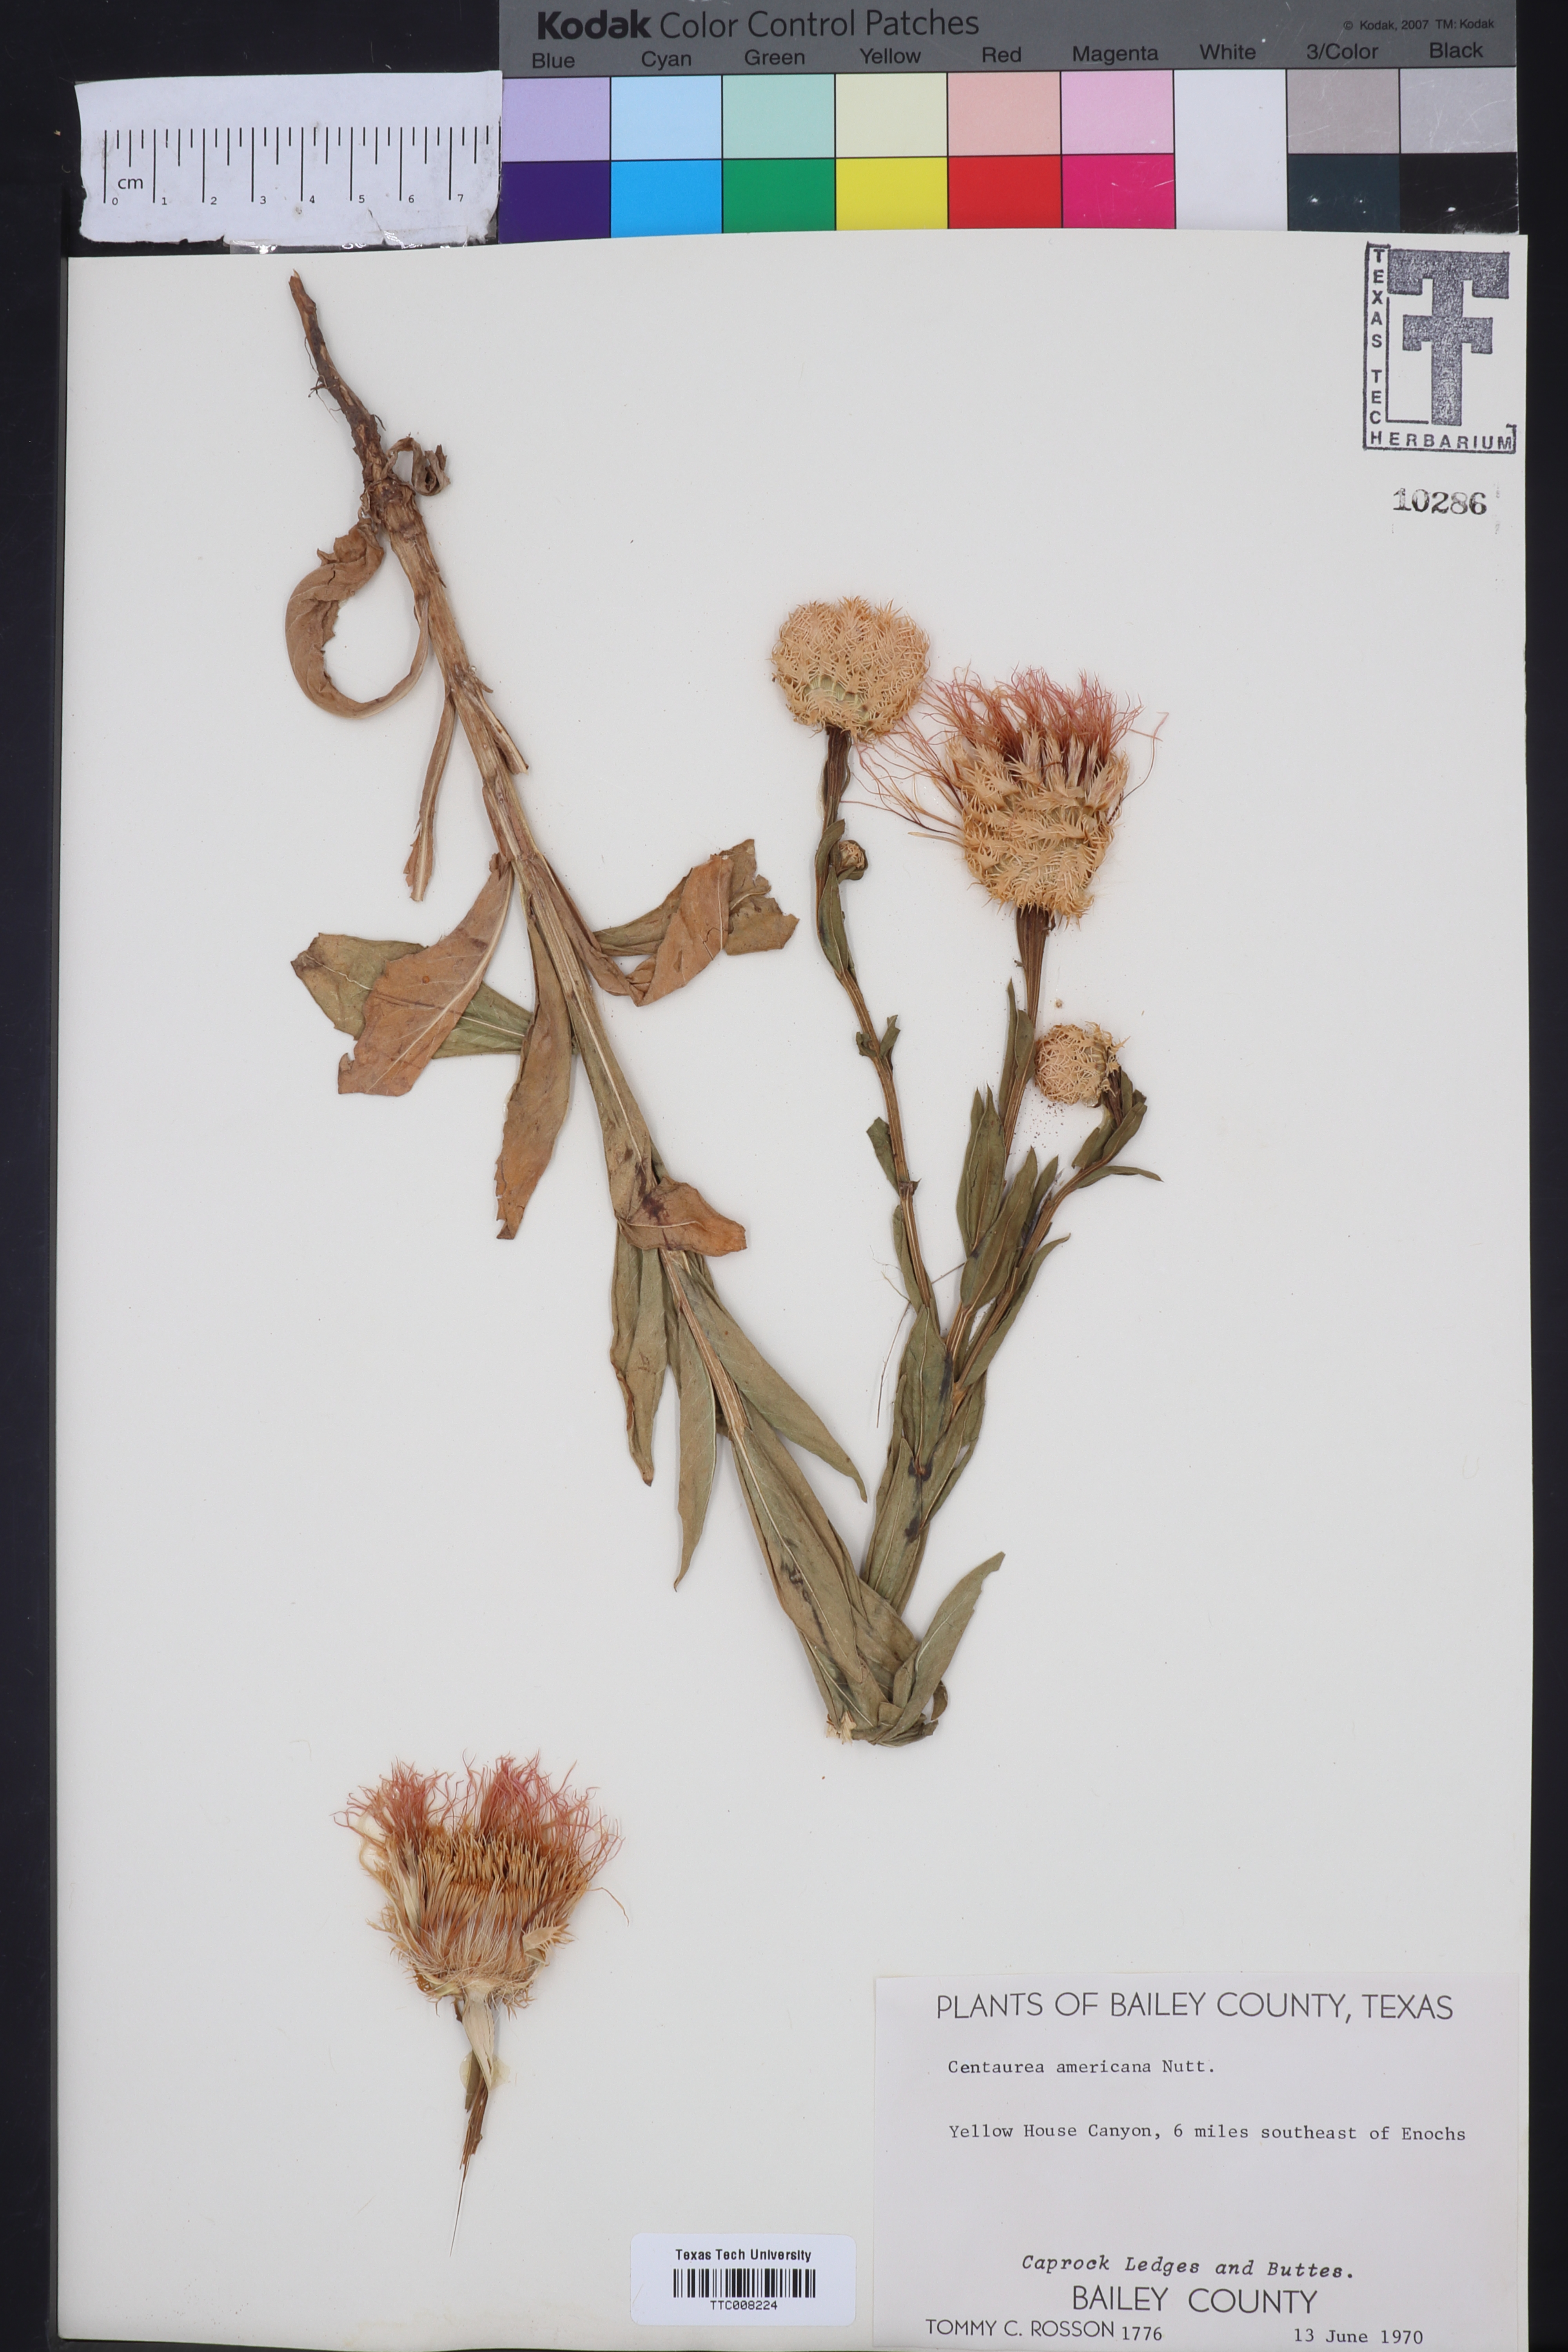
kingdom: Plantae
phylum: Tracheophyta
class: Magnoliopsida
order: Asterales
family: Asteraceae
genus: Plectocephalus
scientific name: Plectocephalus americanus
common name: American basket-flower
